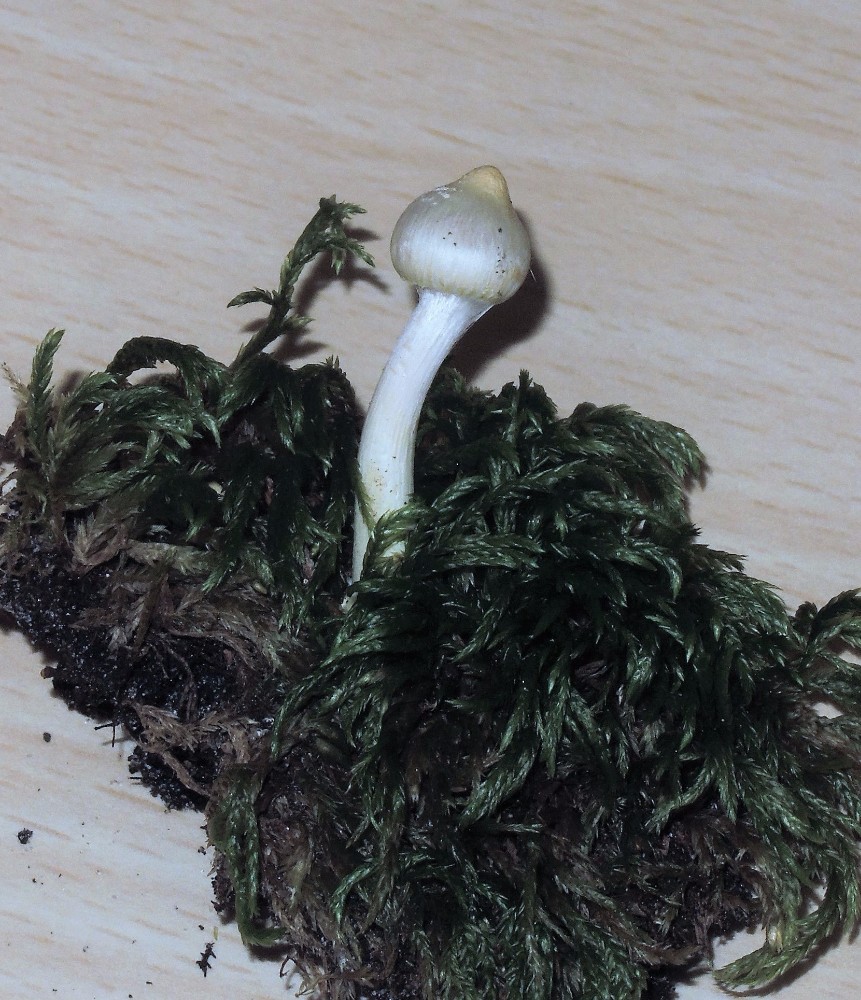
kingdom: Fungi
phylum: Basidiomycota
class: Agaricomycetes
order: Agaricales
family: Inocybaceae
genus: Inocybe
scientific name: Inocybe
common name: almindelig trævlhat
